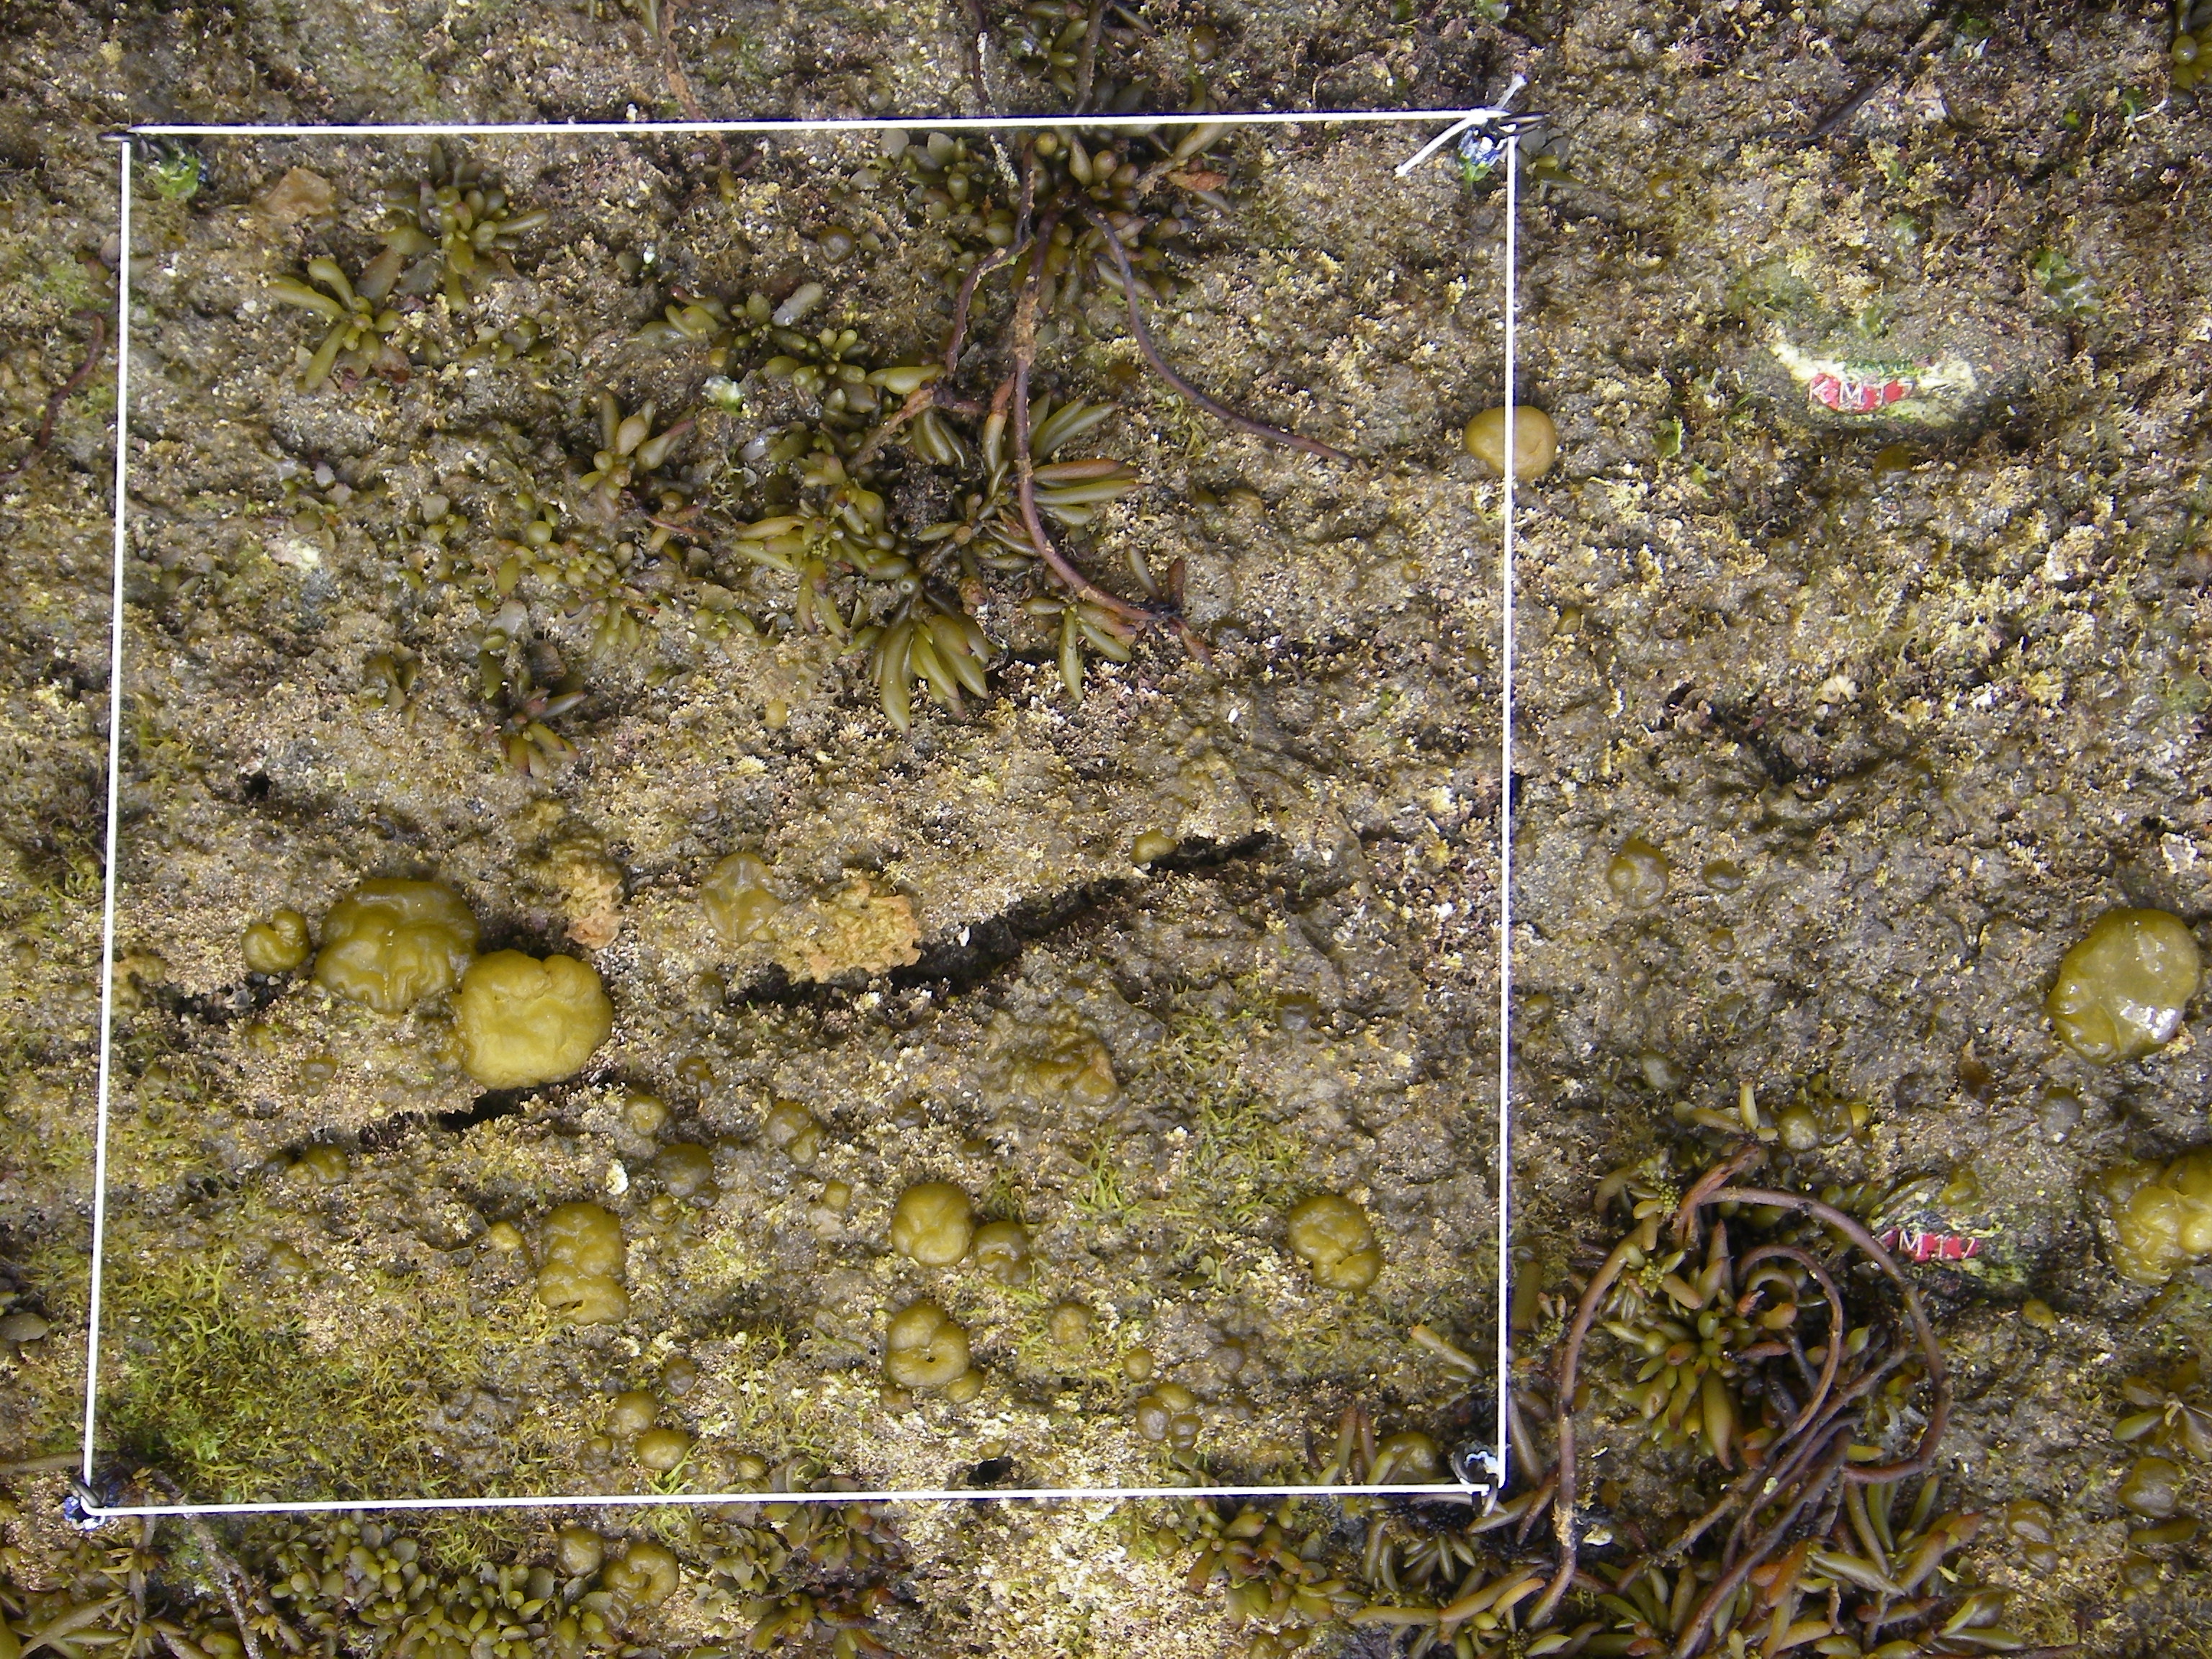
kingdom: Chromista
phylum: Ochrophyta
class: Phaeophyceae
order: Fucales
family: Sargassaceae
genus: Sargassum
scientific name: Sargassum fusiforme
